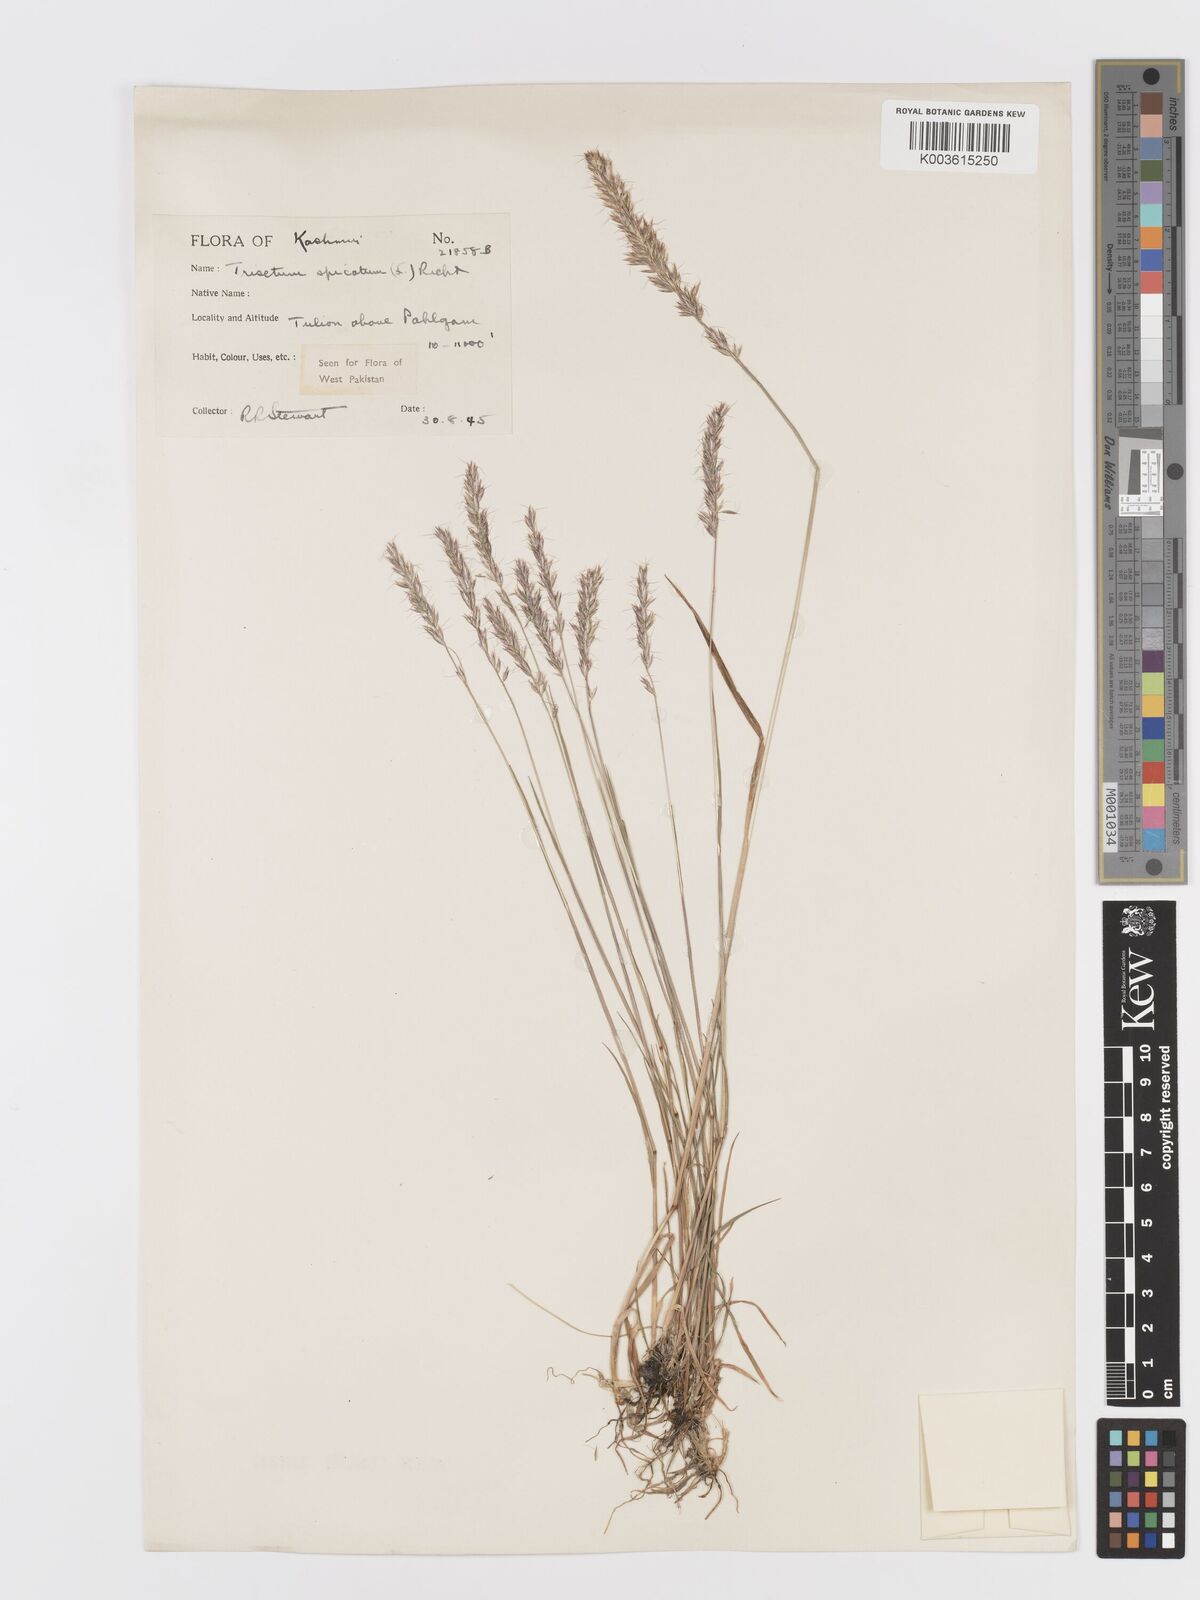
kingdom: Plantae
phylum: Tracheophyta
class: Liliopsida
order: Poales
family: Poaceae
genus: Koeleria
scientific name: Koeleria spicata
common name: Mountain trisetum
